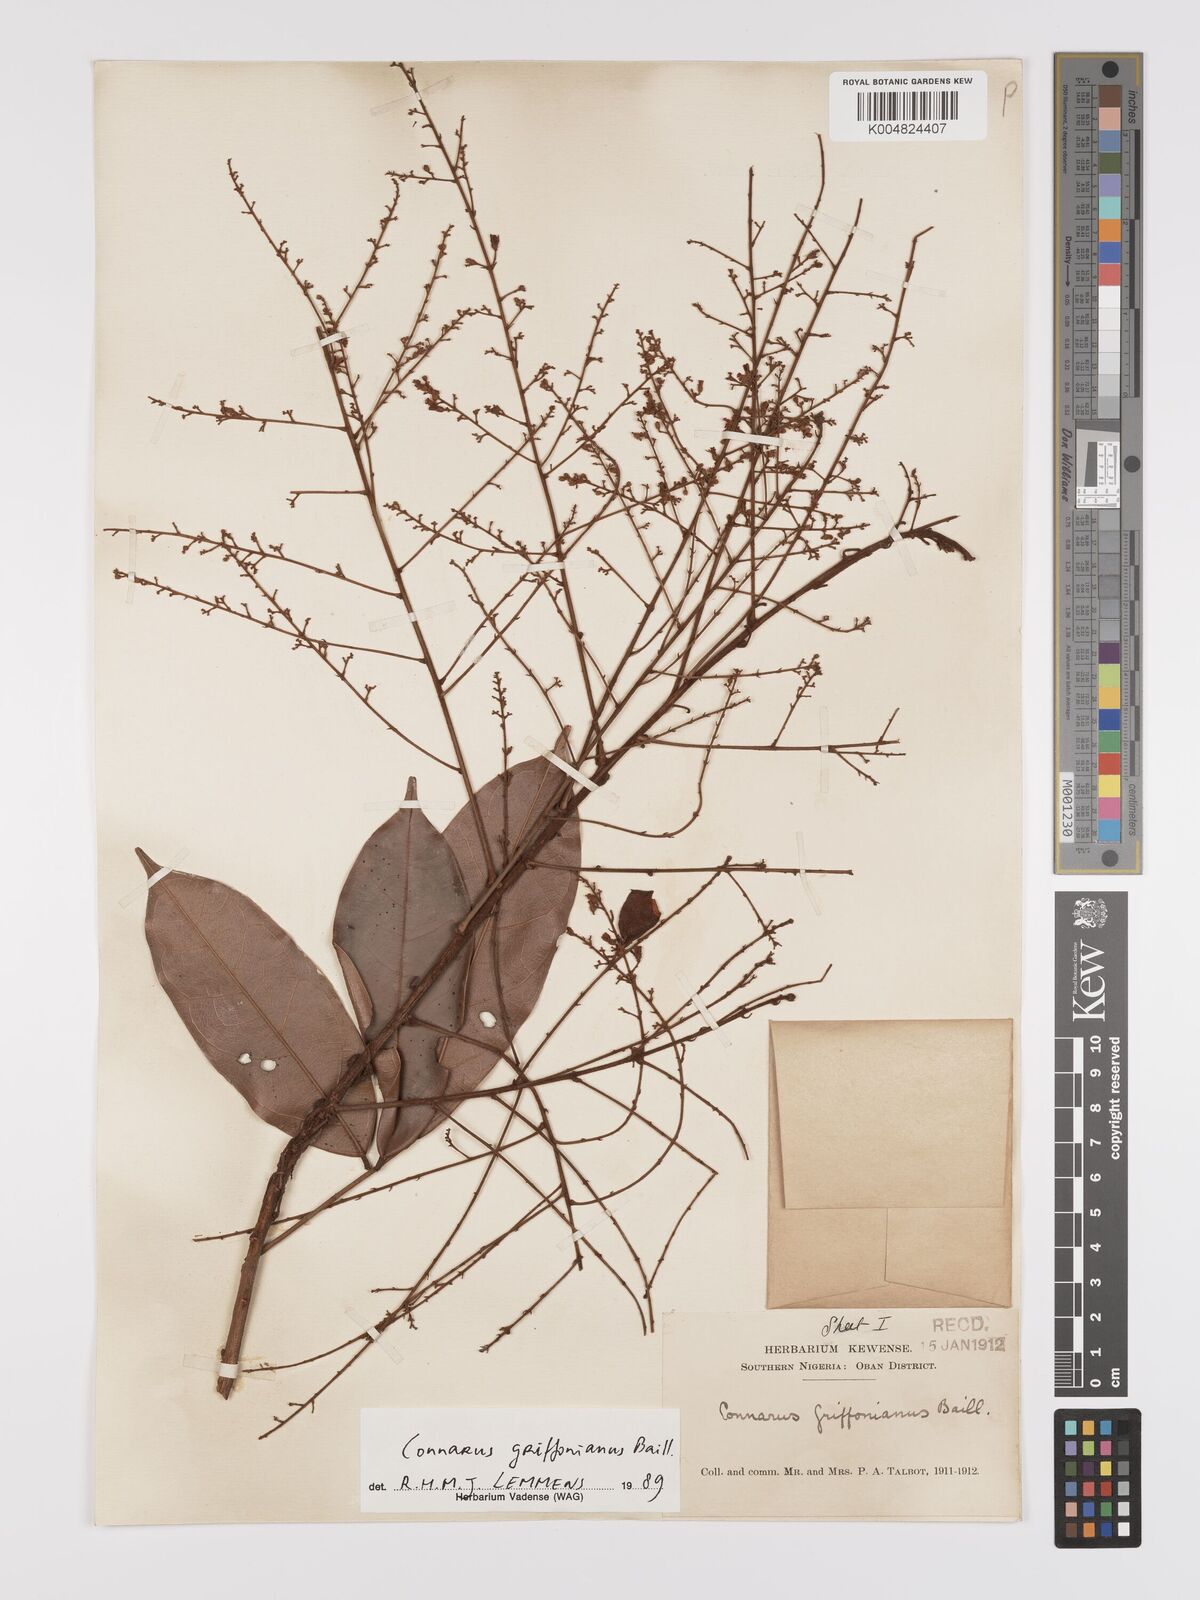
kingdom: Plantae
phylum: Tracheophyta
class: Magnoliopsida
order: Oxalidales
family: Connaraceae
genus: Connarus
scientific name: Connarus griffonianus
